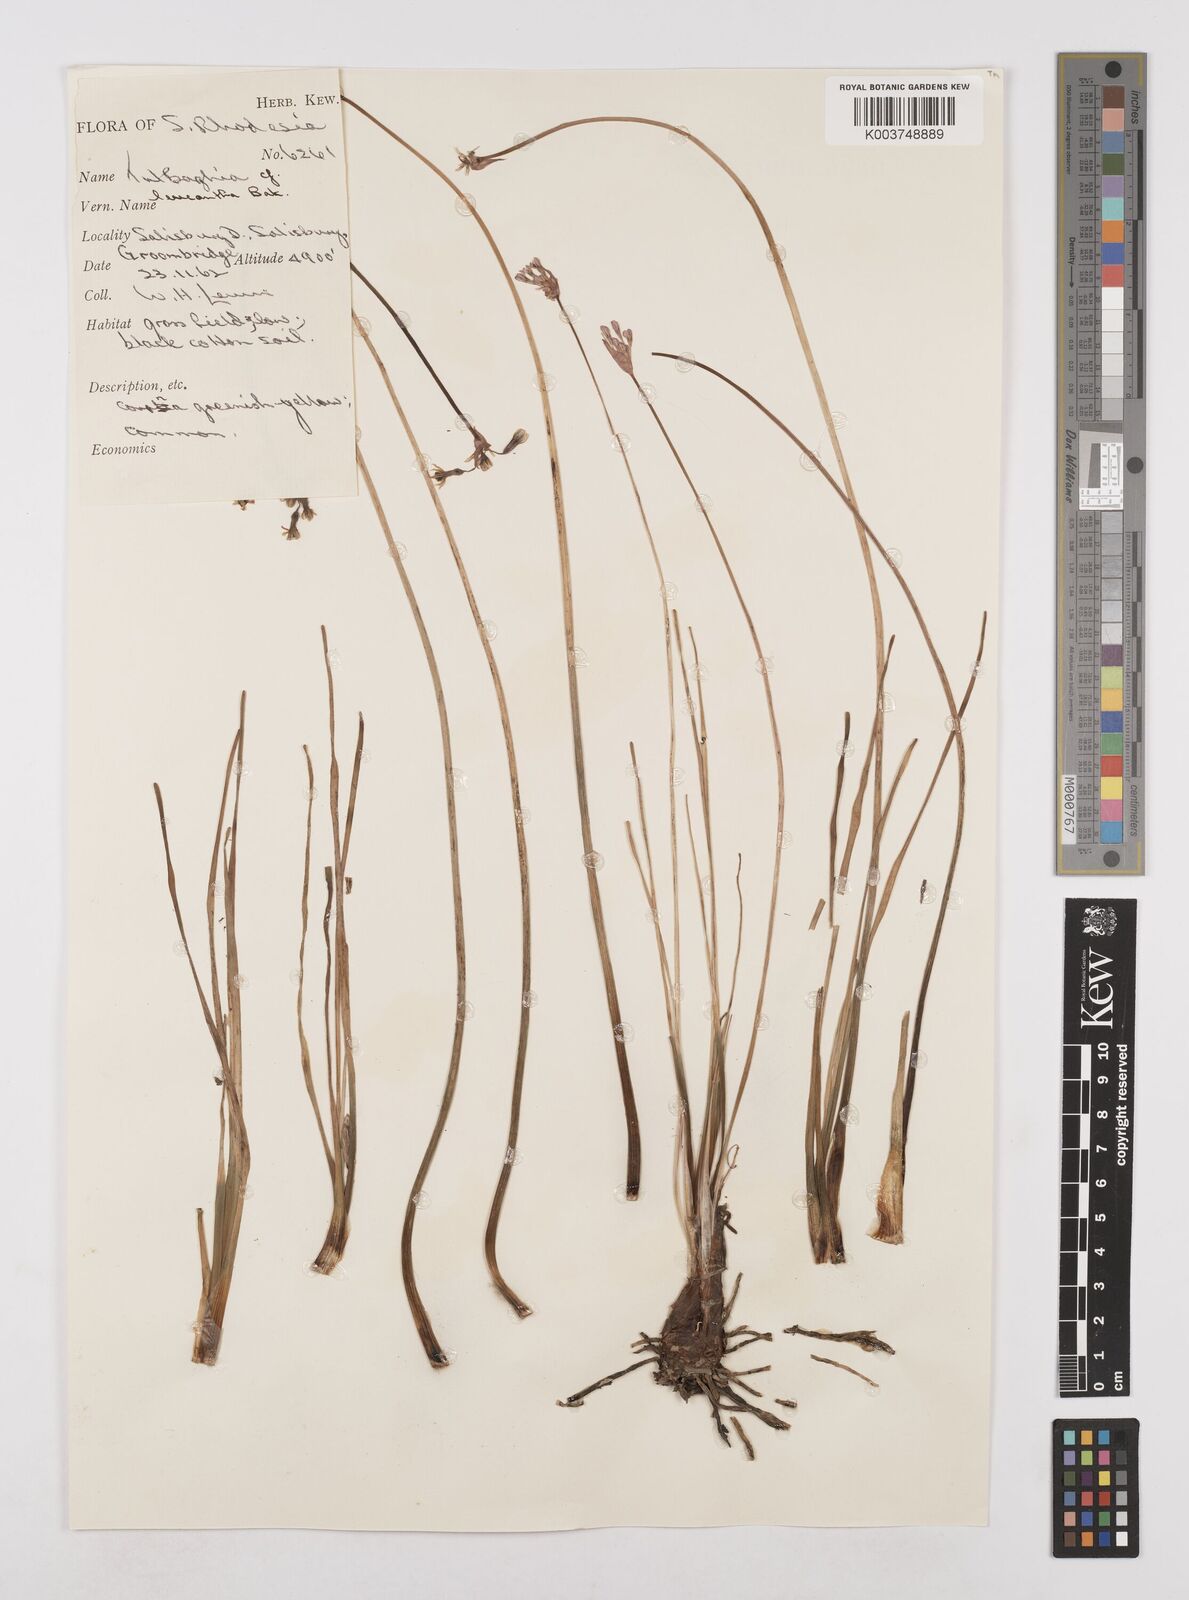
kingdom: Plantae
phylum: Tracheophyta
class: Liliopsida
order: Asparagales
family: Amaryllidaceae
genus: Tulbaghia
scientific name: Tulbaghia leucantha
